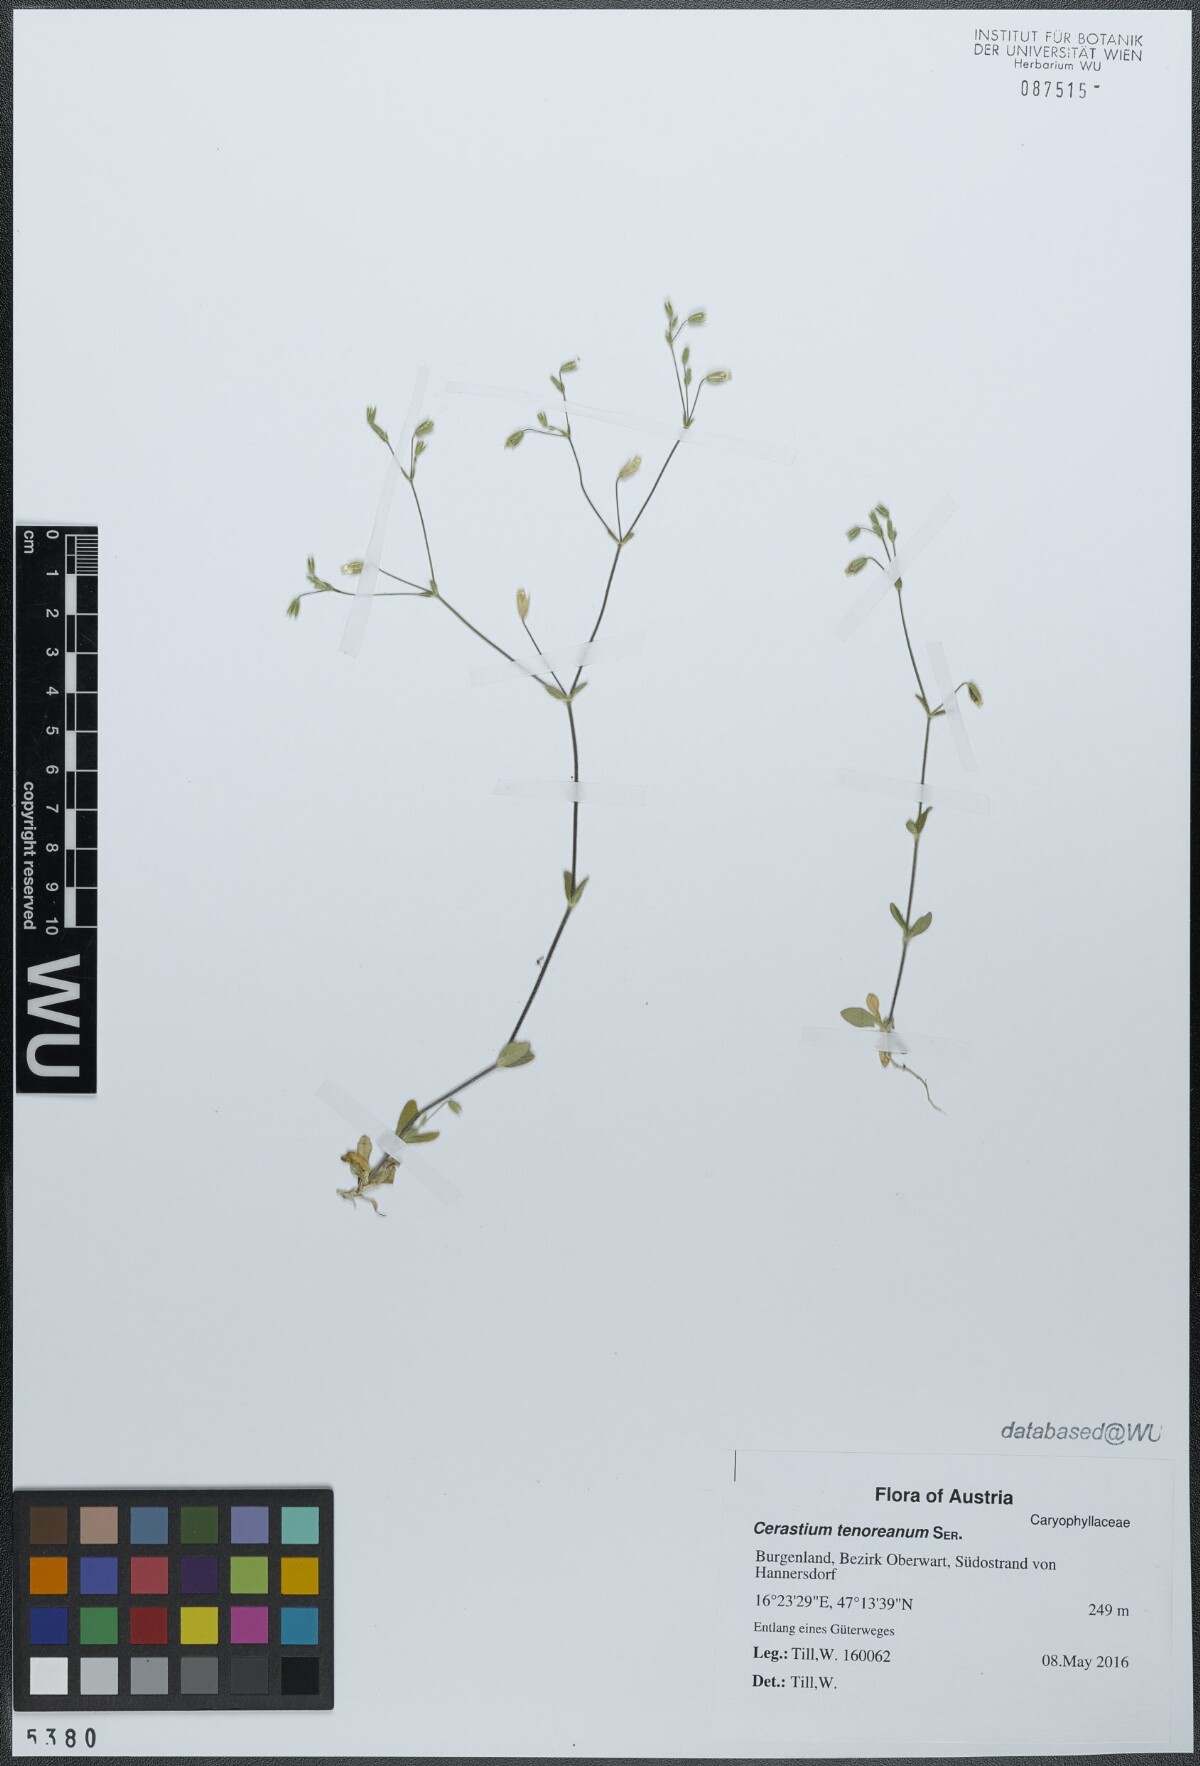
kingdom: Plantae
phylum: Tracheophyta
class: Magnoliopsida
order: Caryophyllales
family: Caryophyllaceae
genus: Cerastium
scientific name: Cerastium tenoreanum
